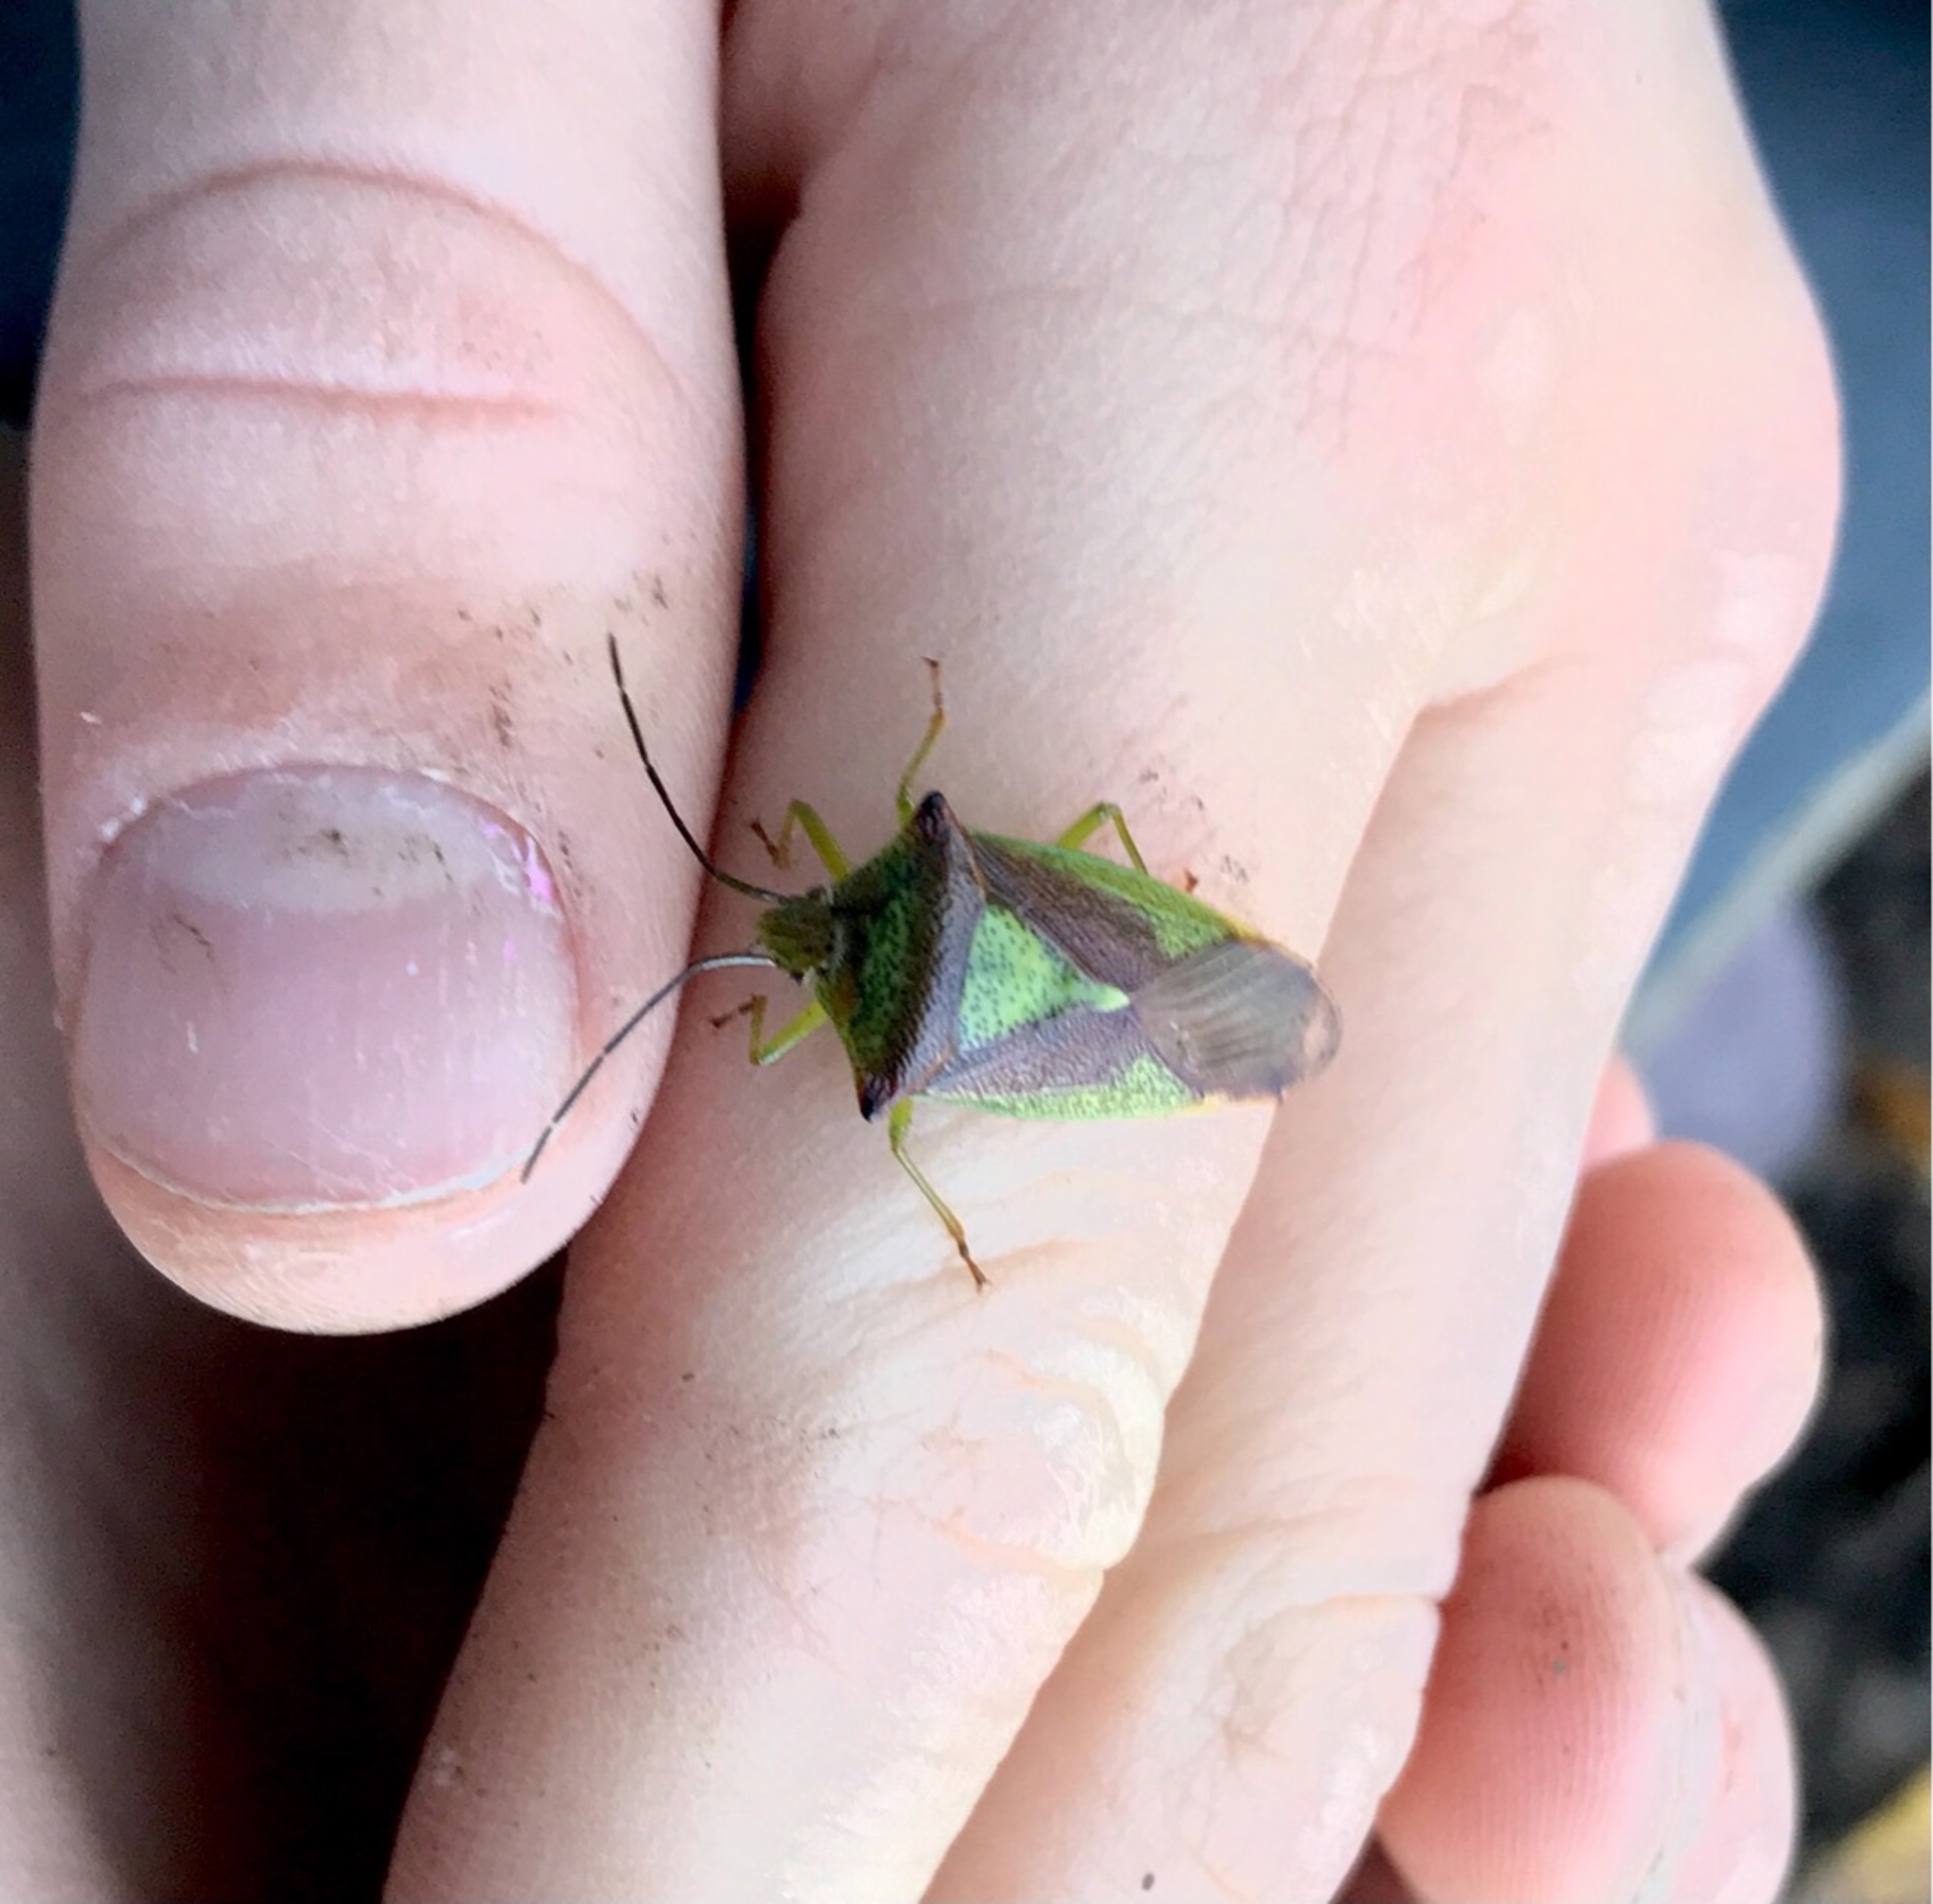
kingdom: Animalia
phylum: Arthropoda
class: Insecta
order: Hemiptera
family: Acanthosomatidae
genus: Acanthosoma
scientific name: Acanthosoma haemorrhoidale
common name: Stor løvtæge
